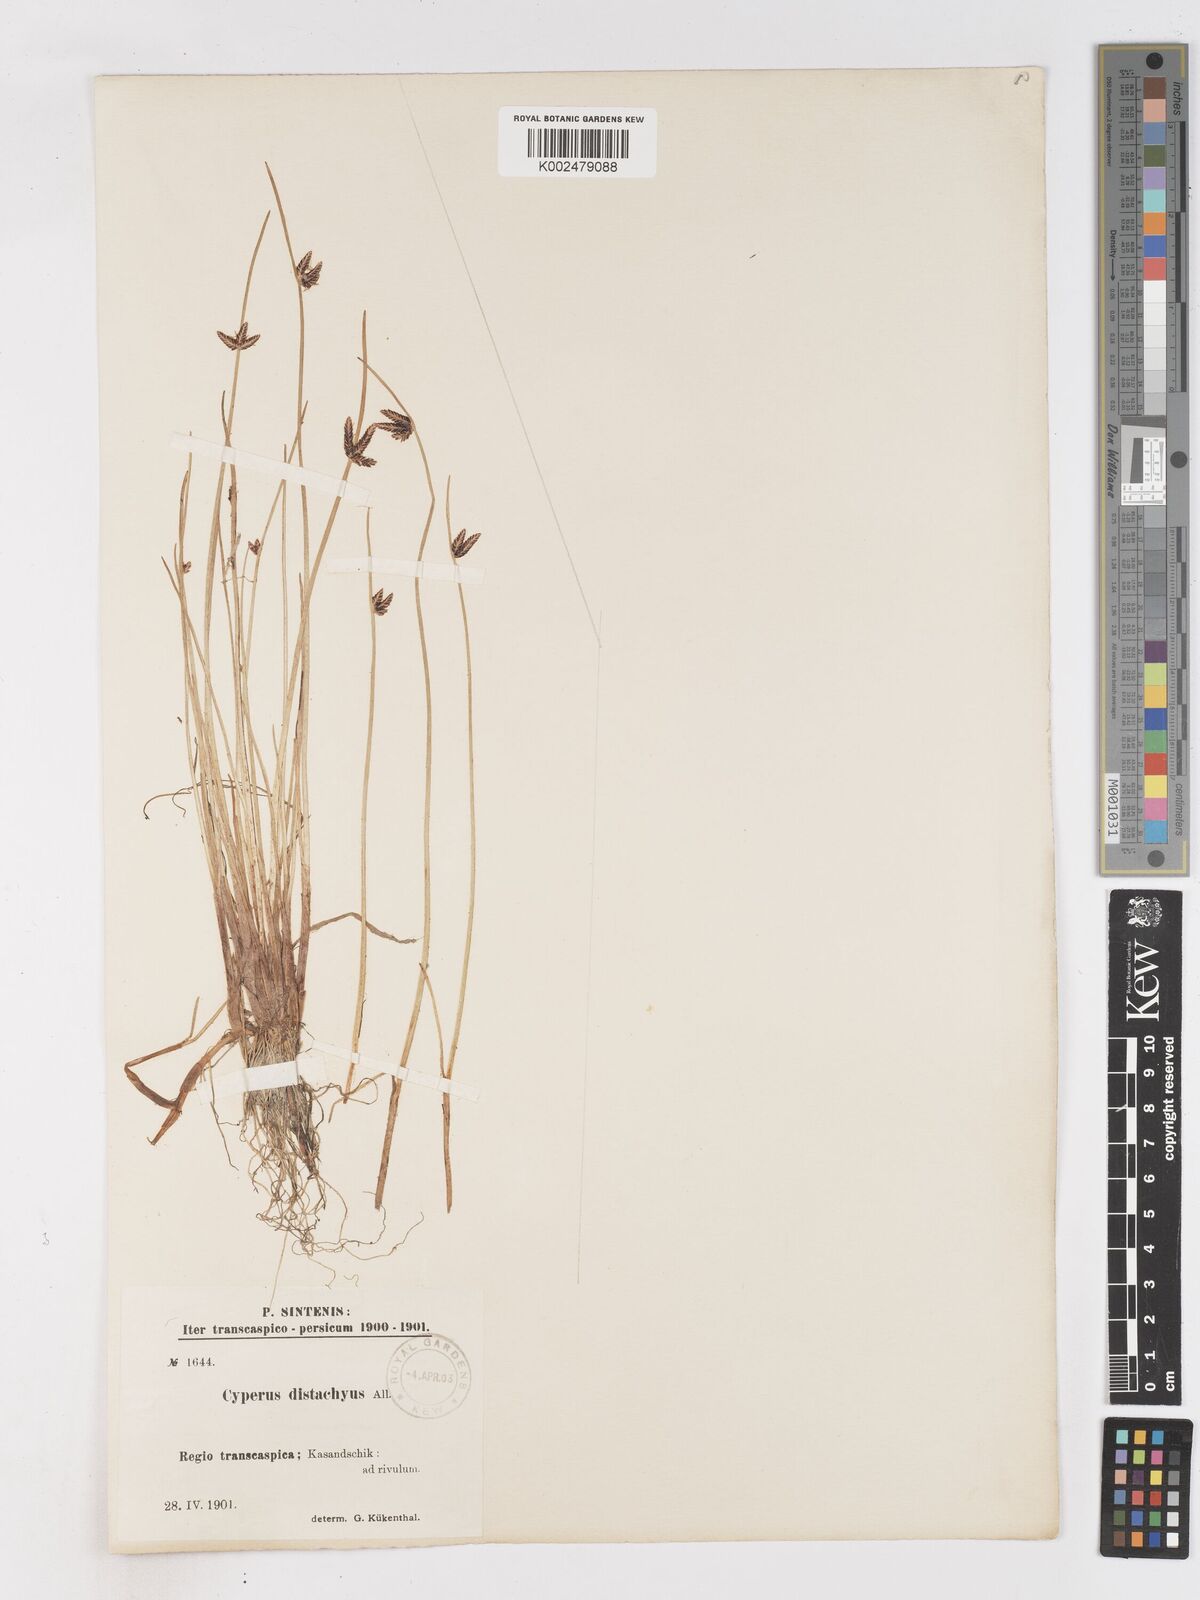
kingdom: Plantae
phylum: Tracheophyta
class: Liliopsida
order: Poales
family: Cyperaceae
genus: Cyperus
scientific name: Cyperus laevigatus
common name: Smooth flat sedge
